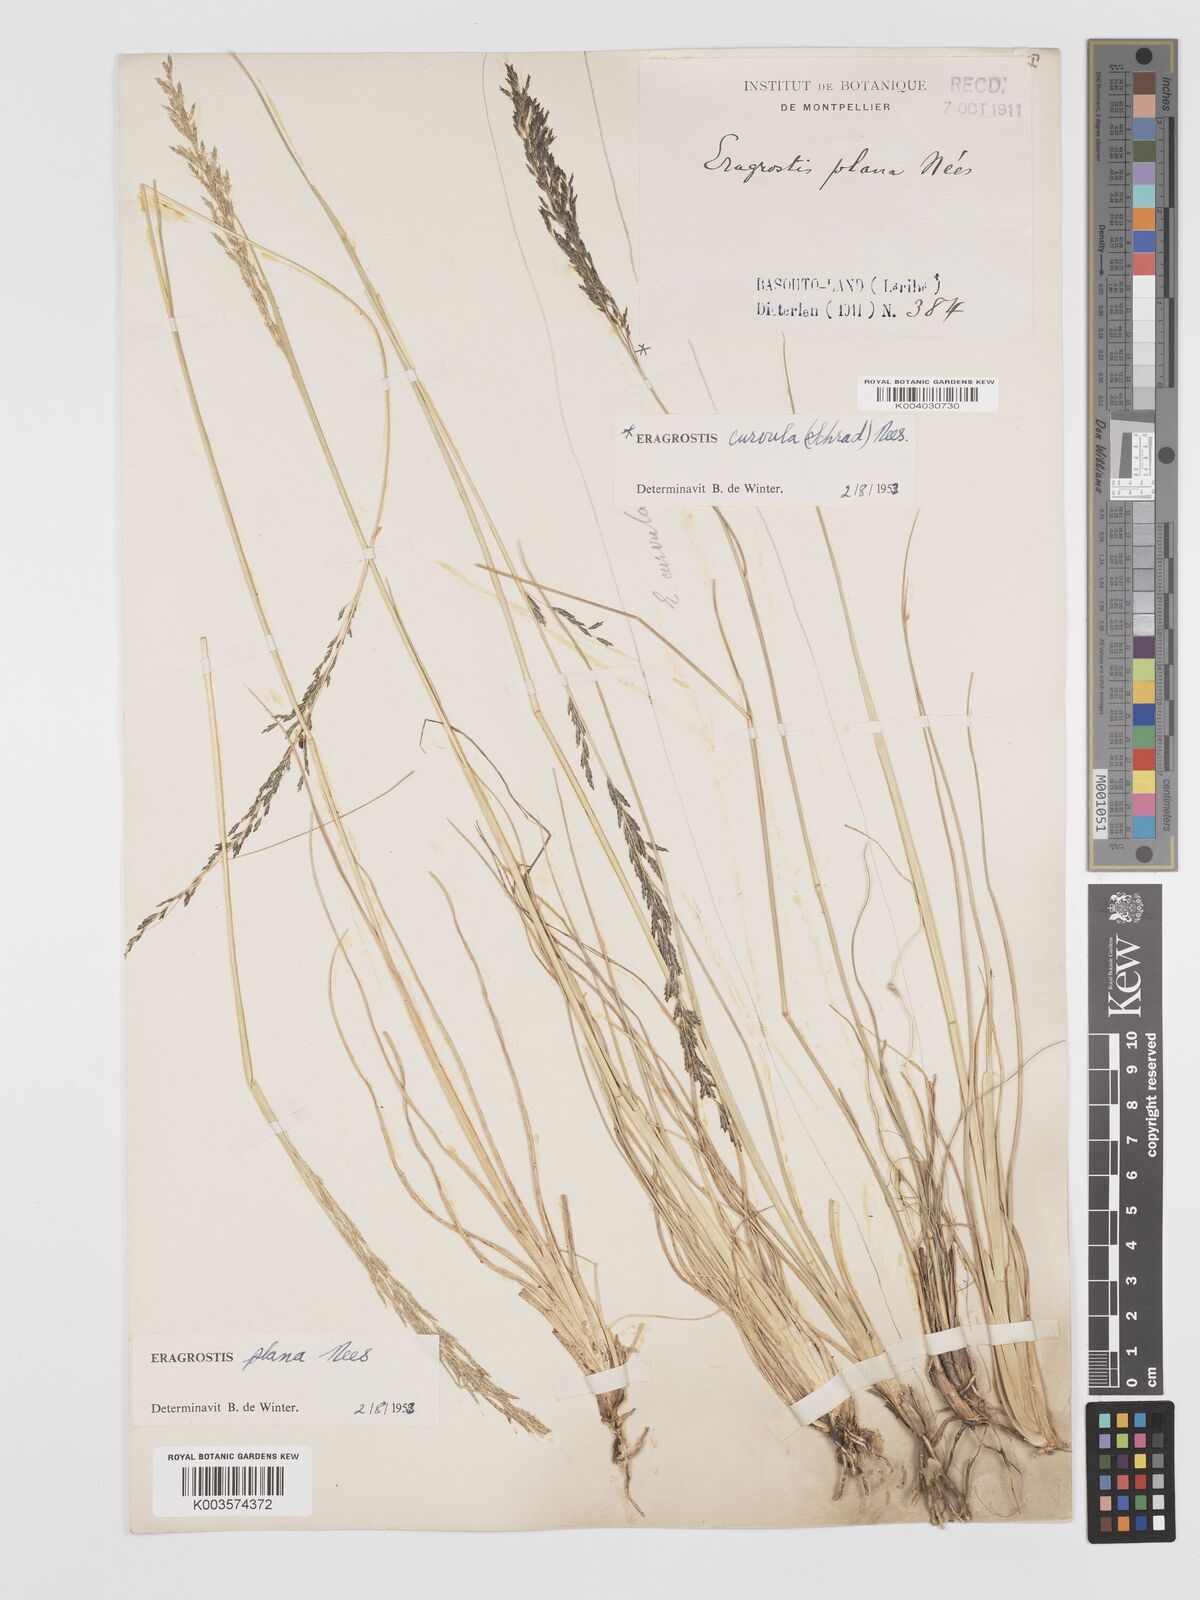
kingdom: Plantae
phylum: Tracheophyta
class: Liliopsida
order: Poales
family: Poaceae
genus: Eragrostis
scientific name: Eragrostis plana
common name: South african lovegrass
